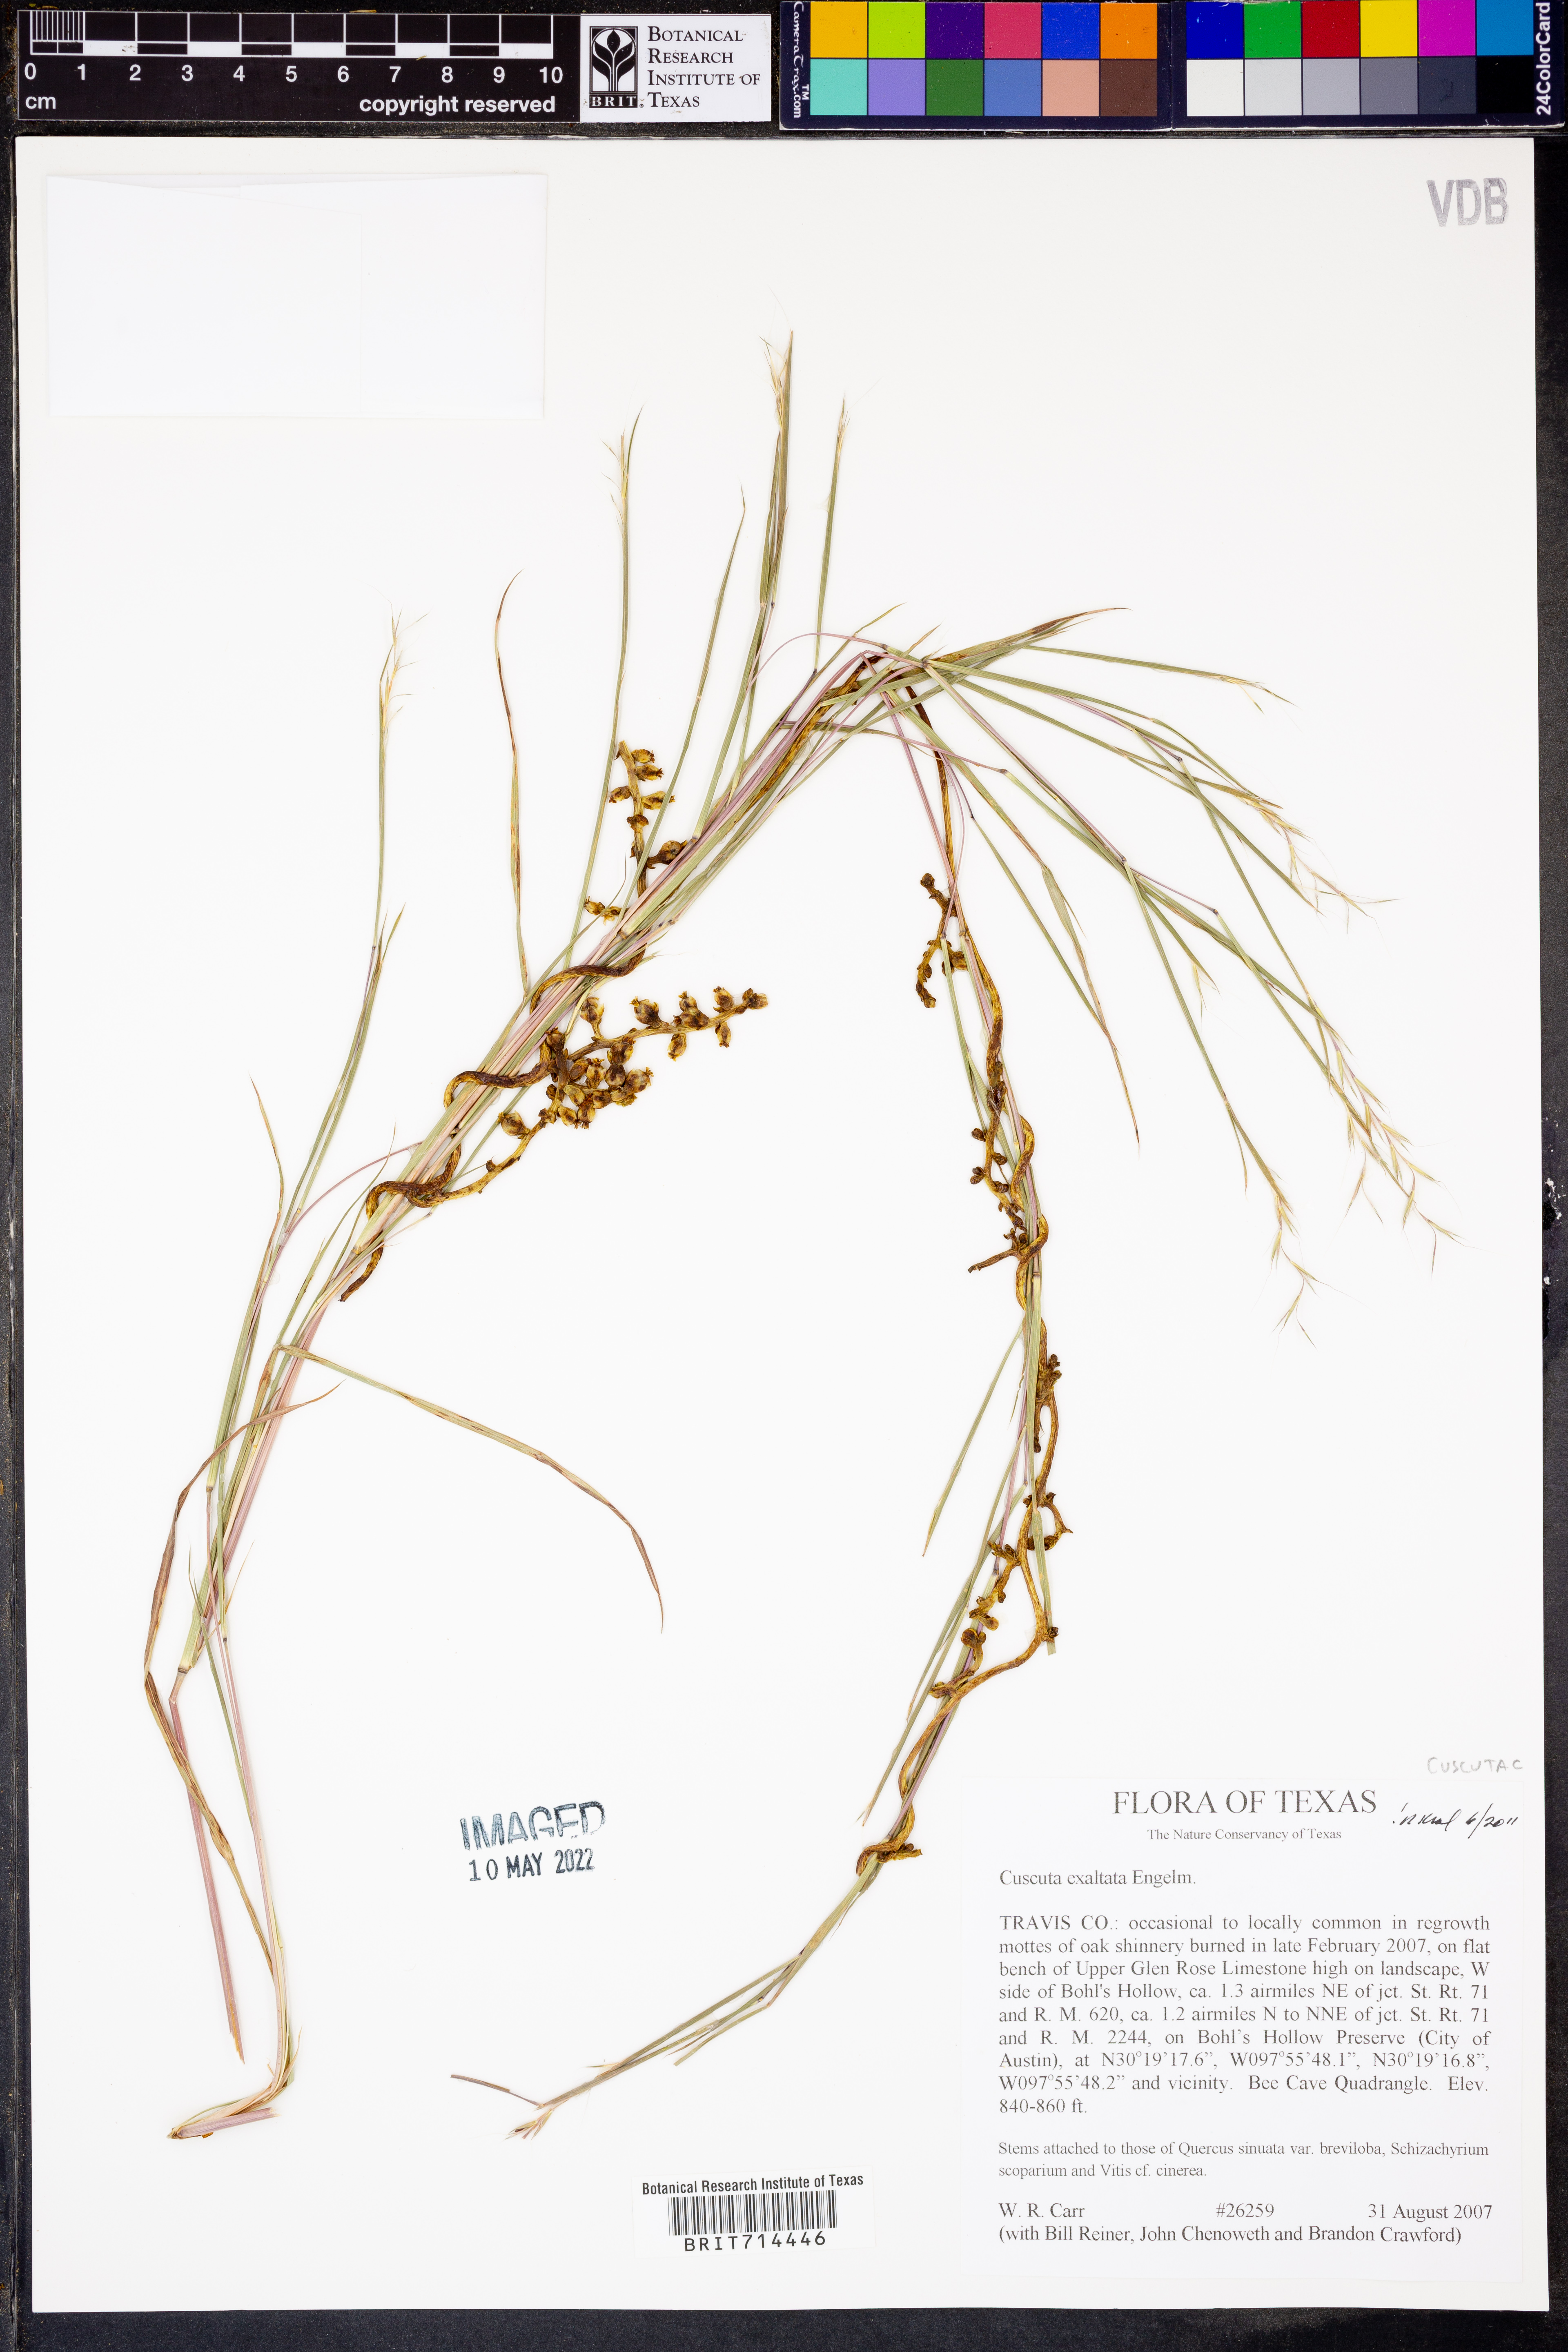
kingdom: Plantae
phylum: Tracheophyta
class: Magnoliopsida
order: Solanales
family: Convolvulaceae
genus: Cuscuta
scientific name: Cuscuta exaltata
